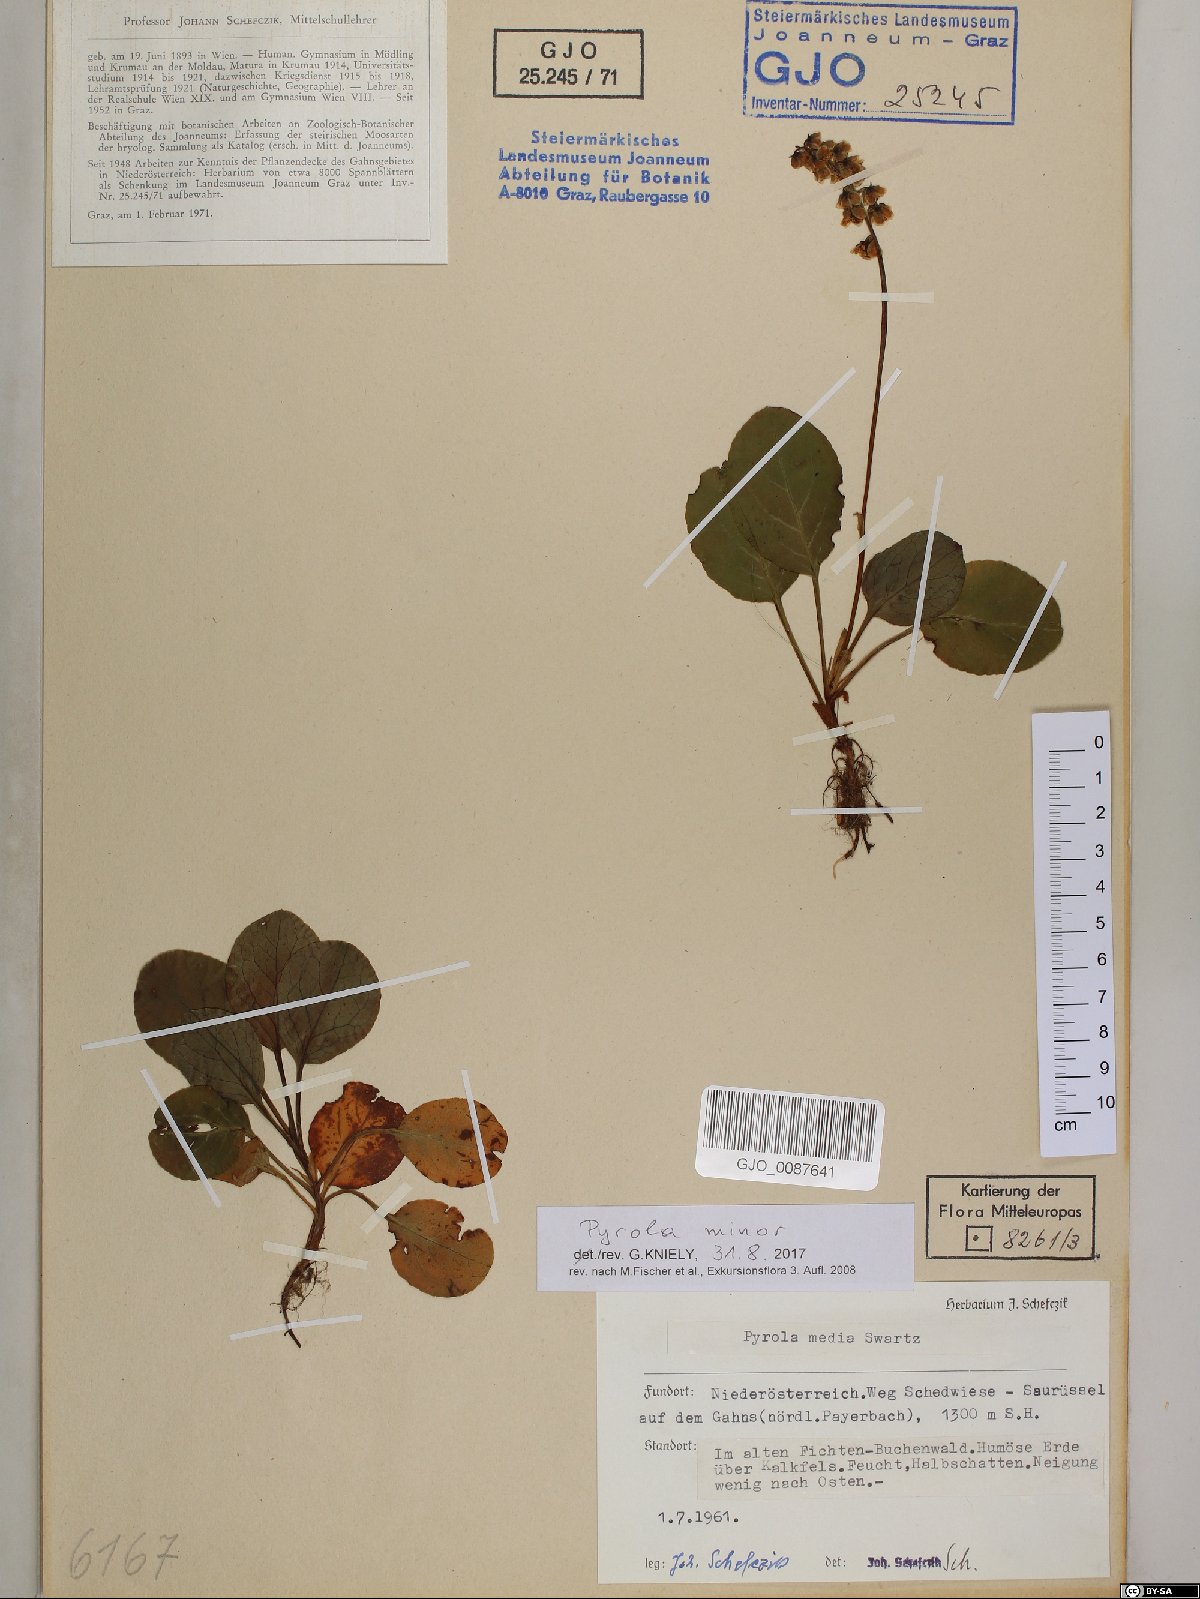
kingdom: Plantae
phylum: Tracheophyta
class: Magnoliopsida
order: Ericales
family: Ericaceae
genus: Pyrola
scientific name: Pyrola minor
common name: Common wintergreen
